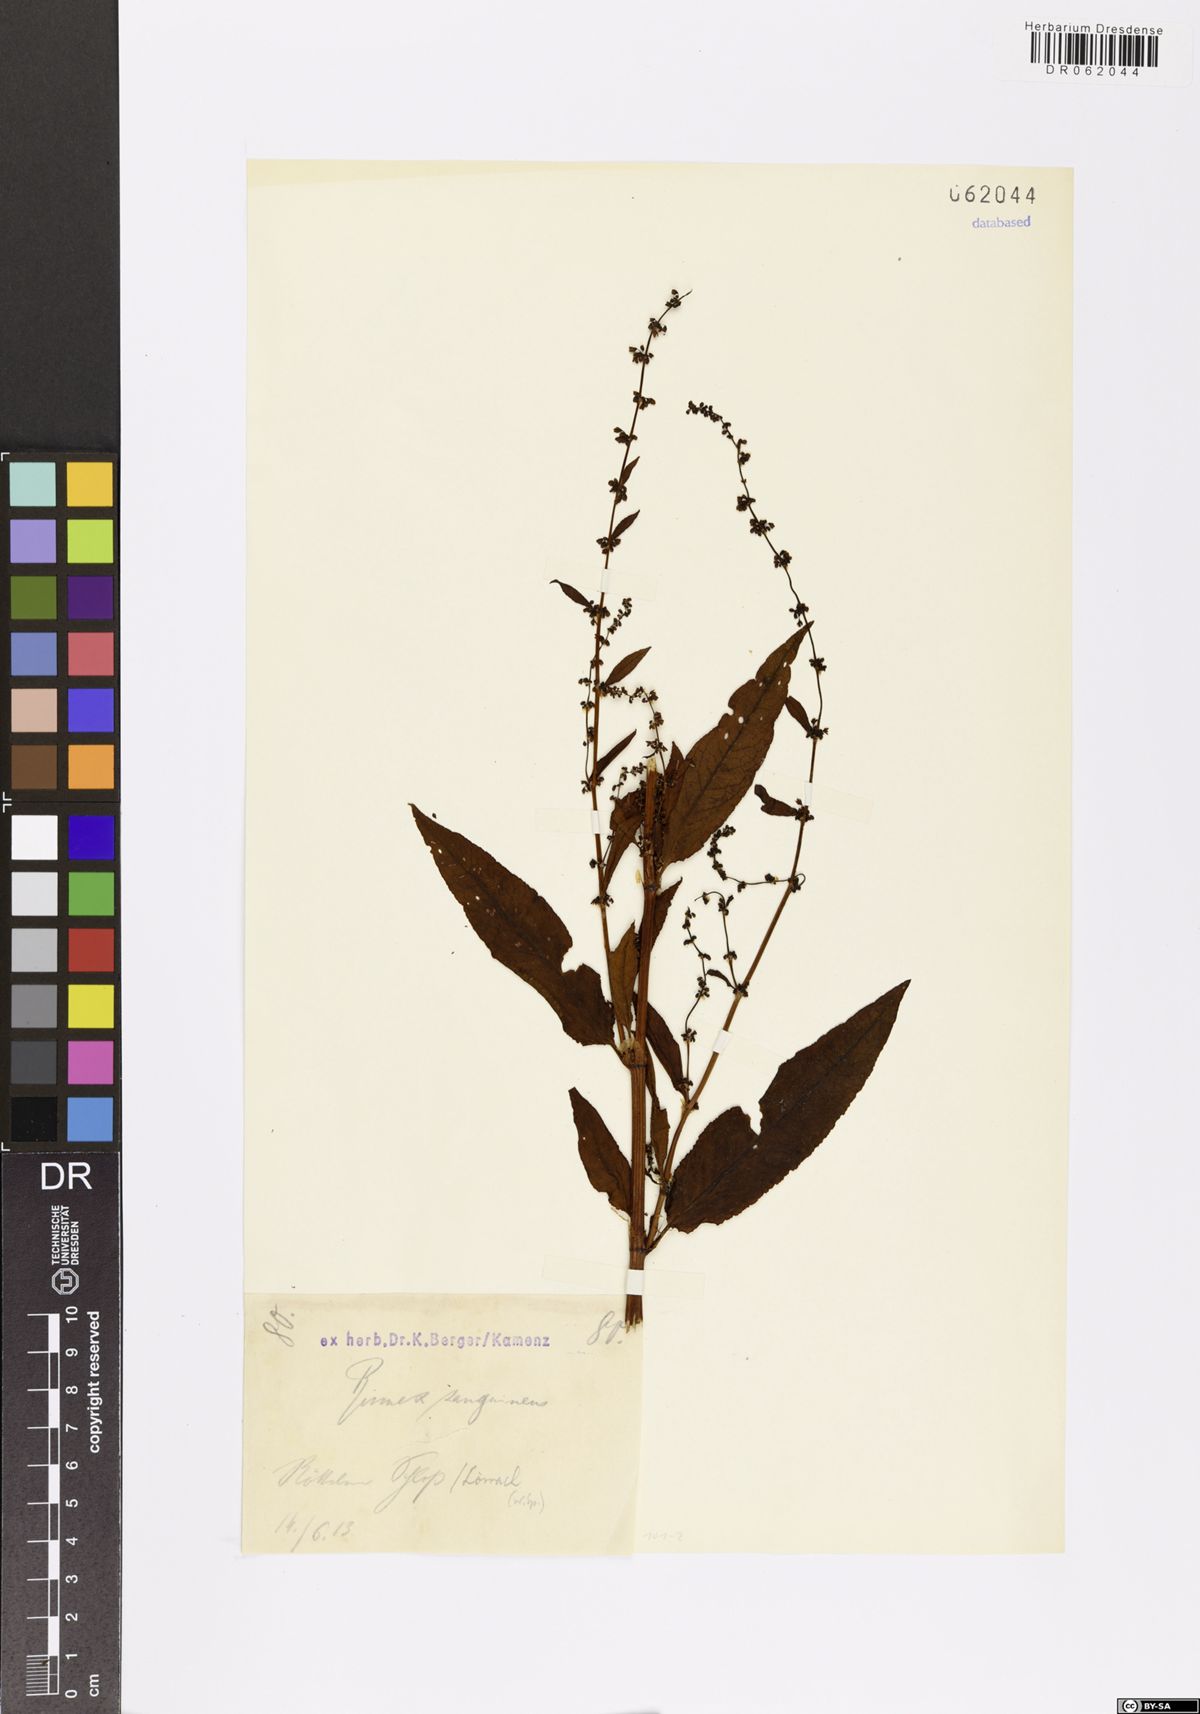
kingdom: Plantae
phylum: Tracheophyta
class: Magnoliopsida
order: Caryophyllales
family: Polygonaceae
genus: Rumex
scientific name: Rumex sanguineus
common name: Wood dock
